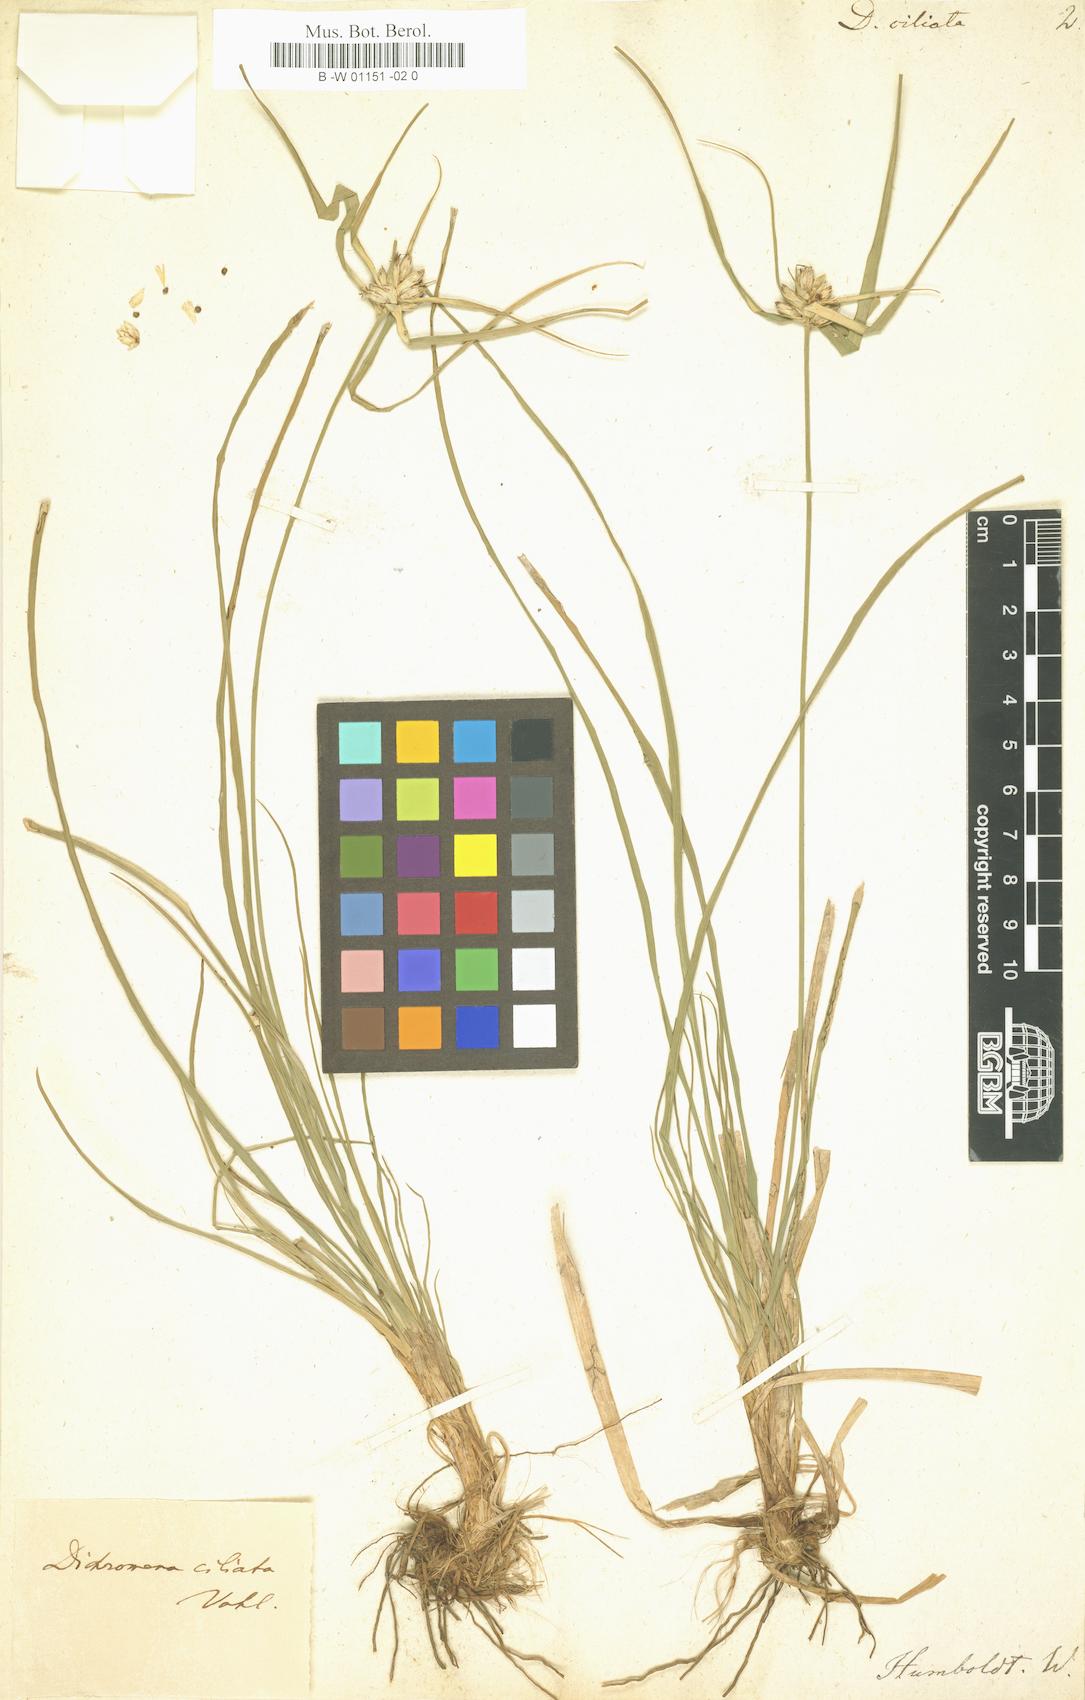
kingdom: Plantae
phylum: Tracheophyta
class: Liliopsida
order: Poales
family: Cyperaceae
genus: Rhynchospora
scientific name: Rhynchospora pura
